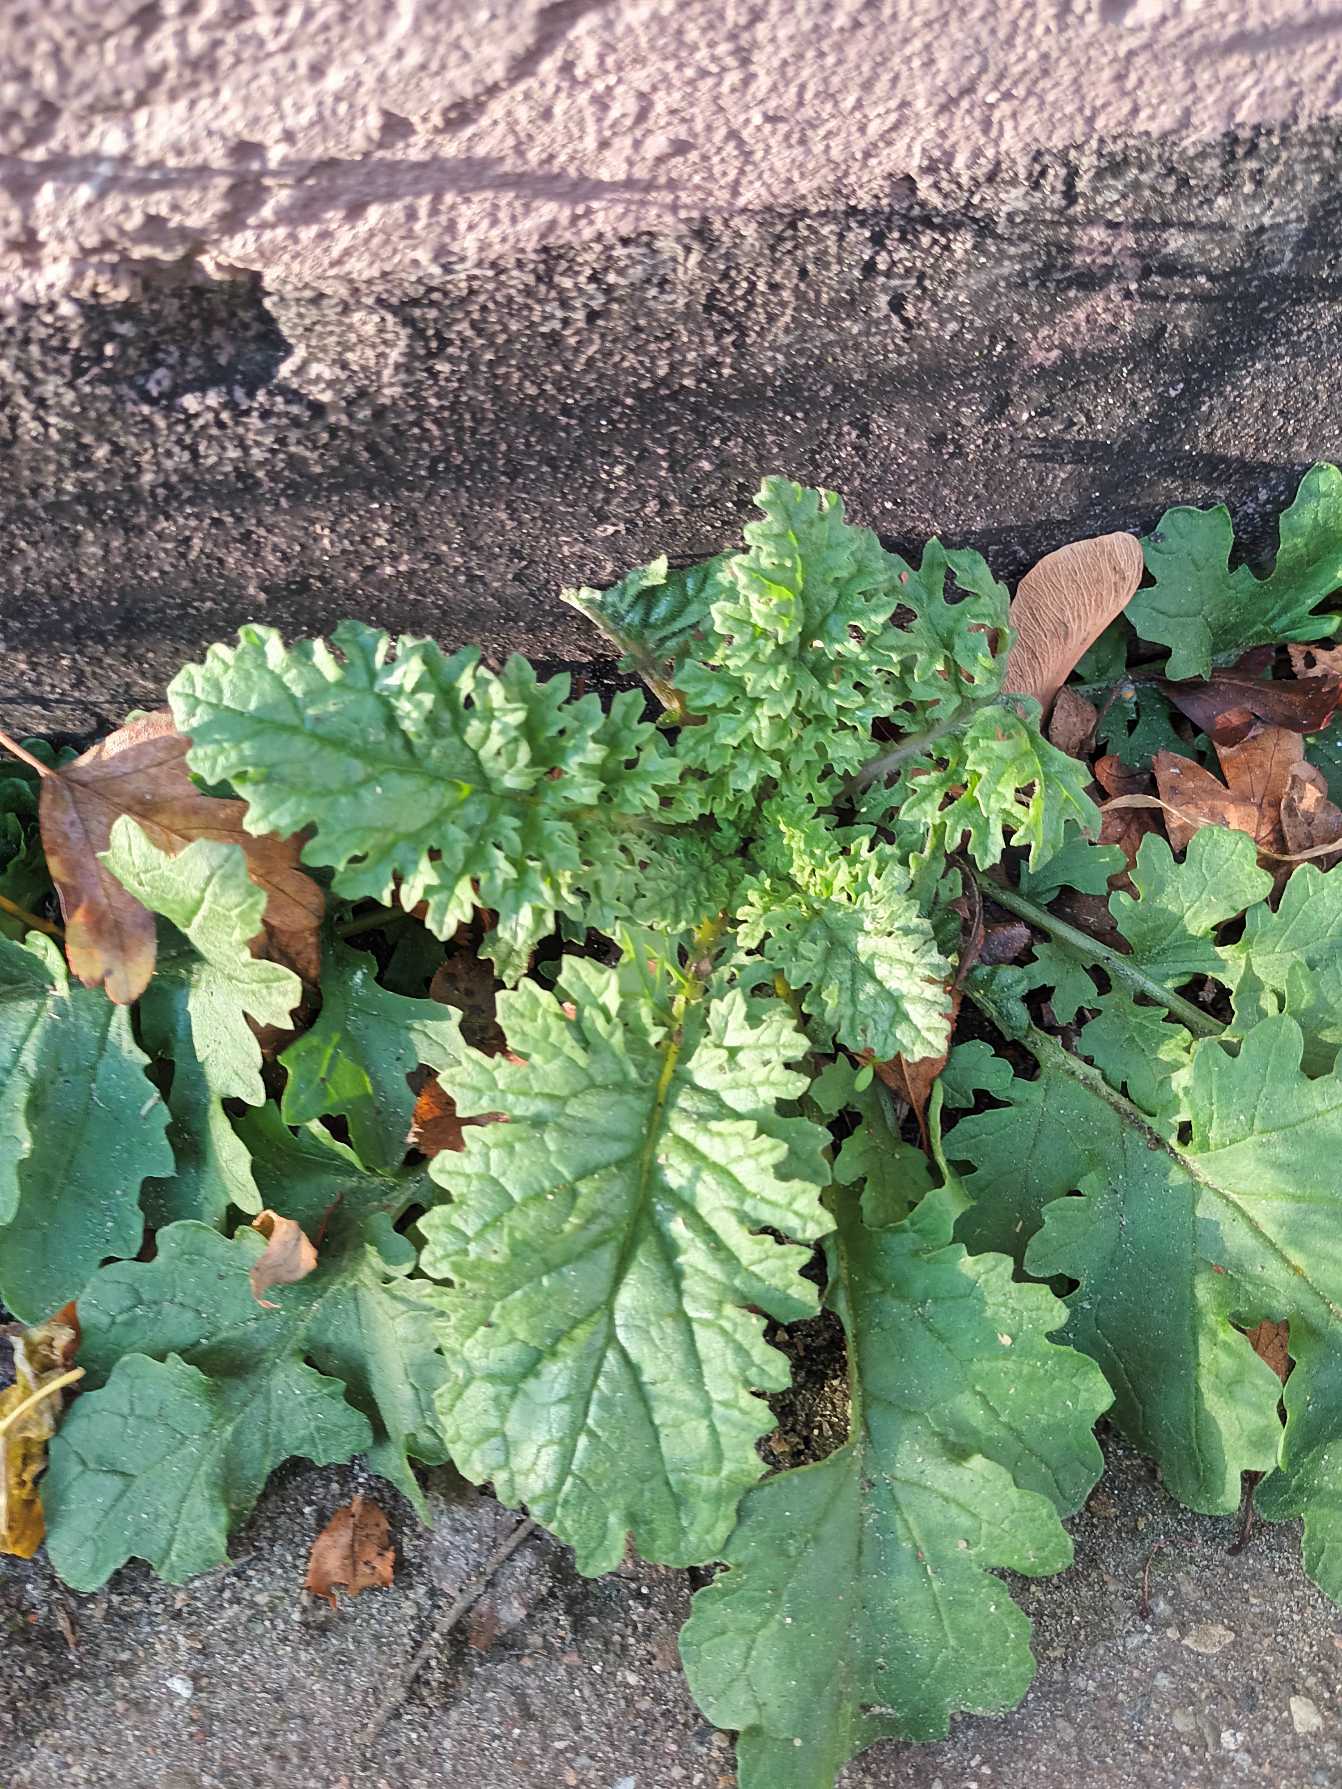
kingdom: Plantae
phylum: Tracheophyta
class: Magnoliopsida
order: Asterales
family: Asteraceae
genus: Jacobaea
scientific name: Jacobaea vulgaris
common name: Eng-brandbæger
